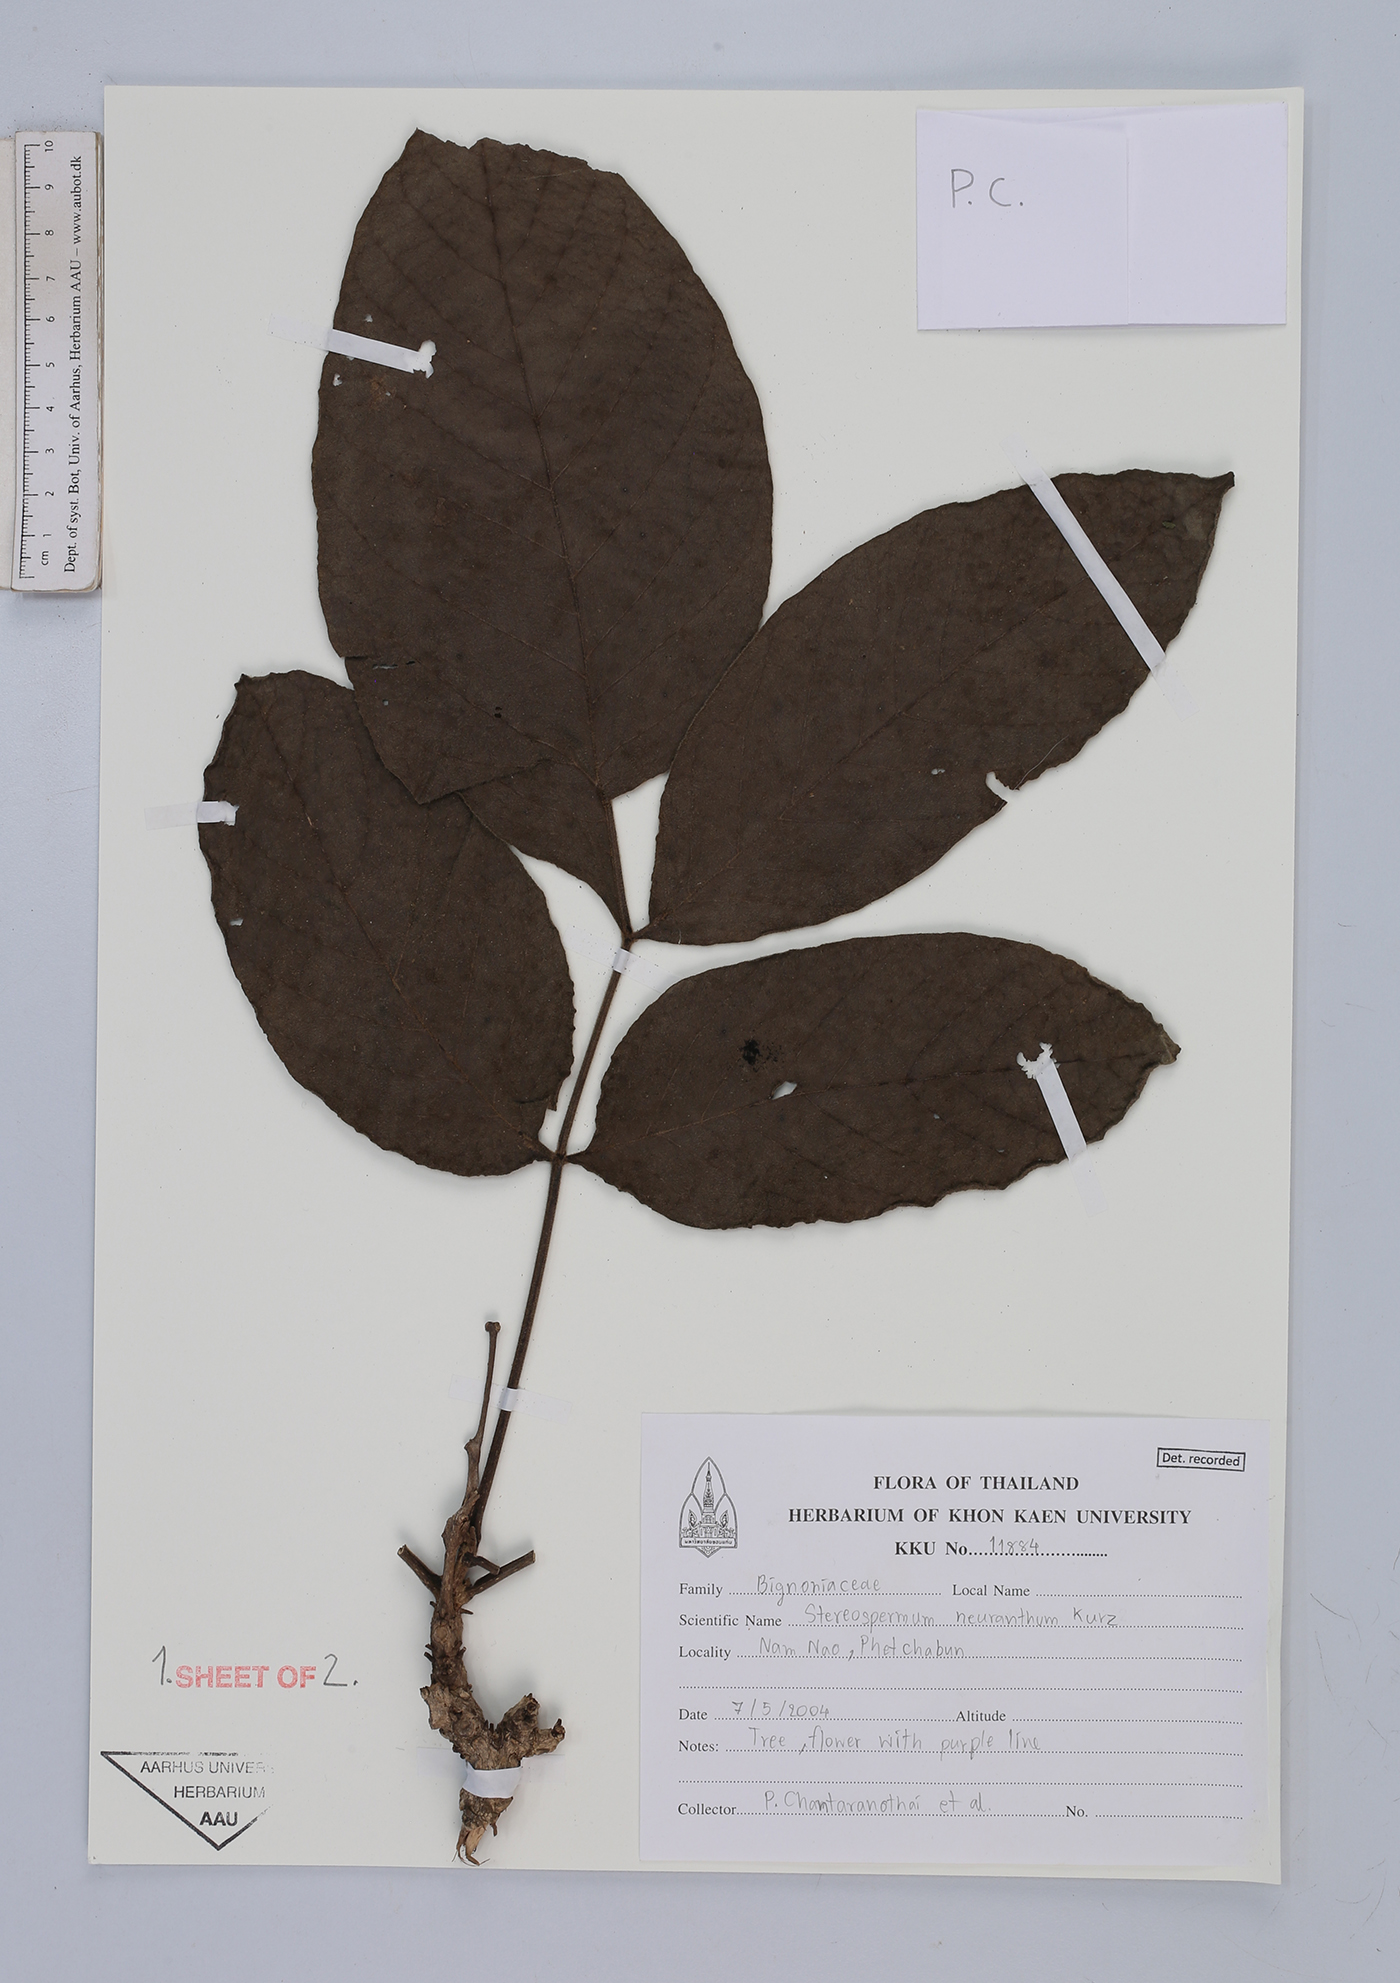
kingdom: Plantae
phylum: Tracheophyta
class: Magnoliopsida
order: Lamiales
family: Bignoniaceae
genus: Stereospermum
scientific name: Stereospermum neuranthum
